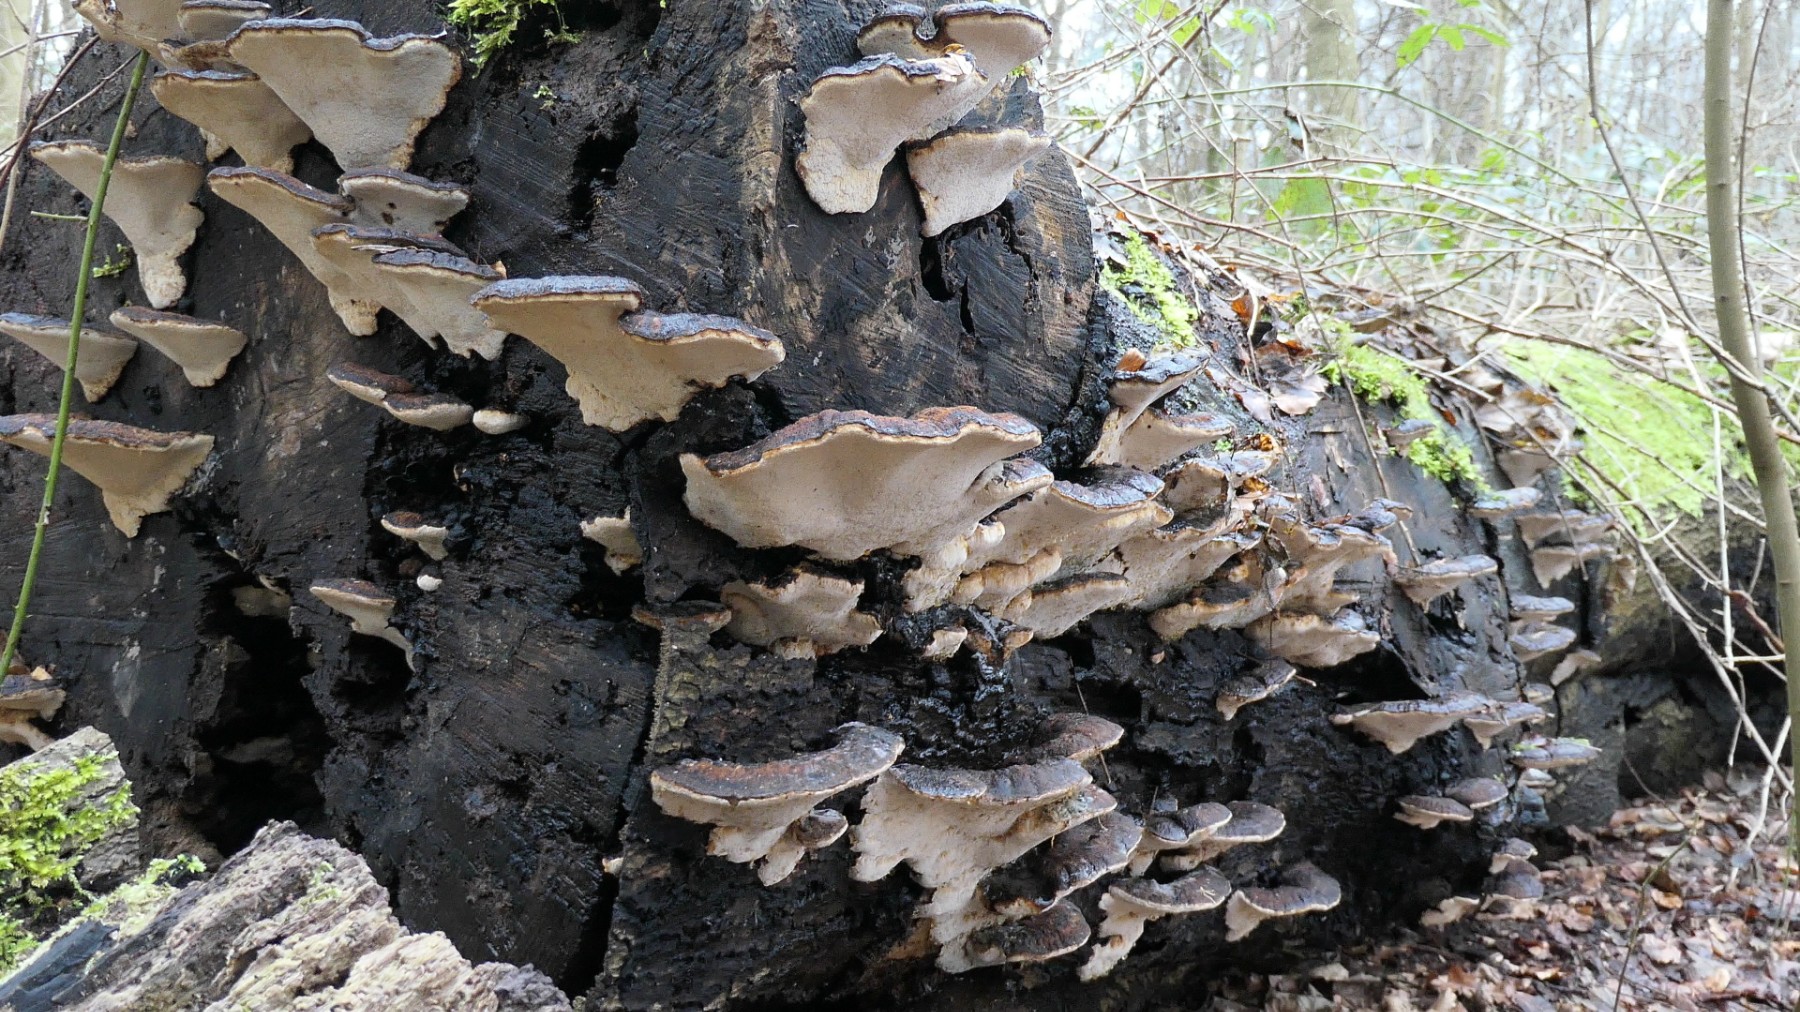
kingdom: Fungi
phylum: Basidiomycota
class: Agaricomycetes
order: Polyporales
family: Ischnodermataceae
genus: Ischnoderma
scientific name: Ischnoderma resinosum
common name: løv-tjæreporesvamp
